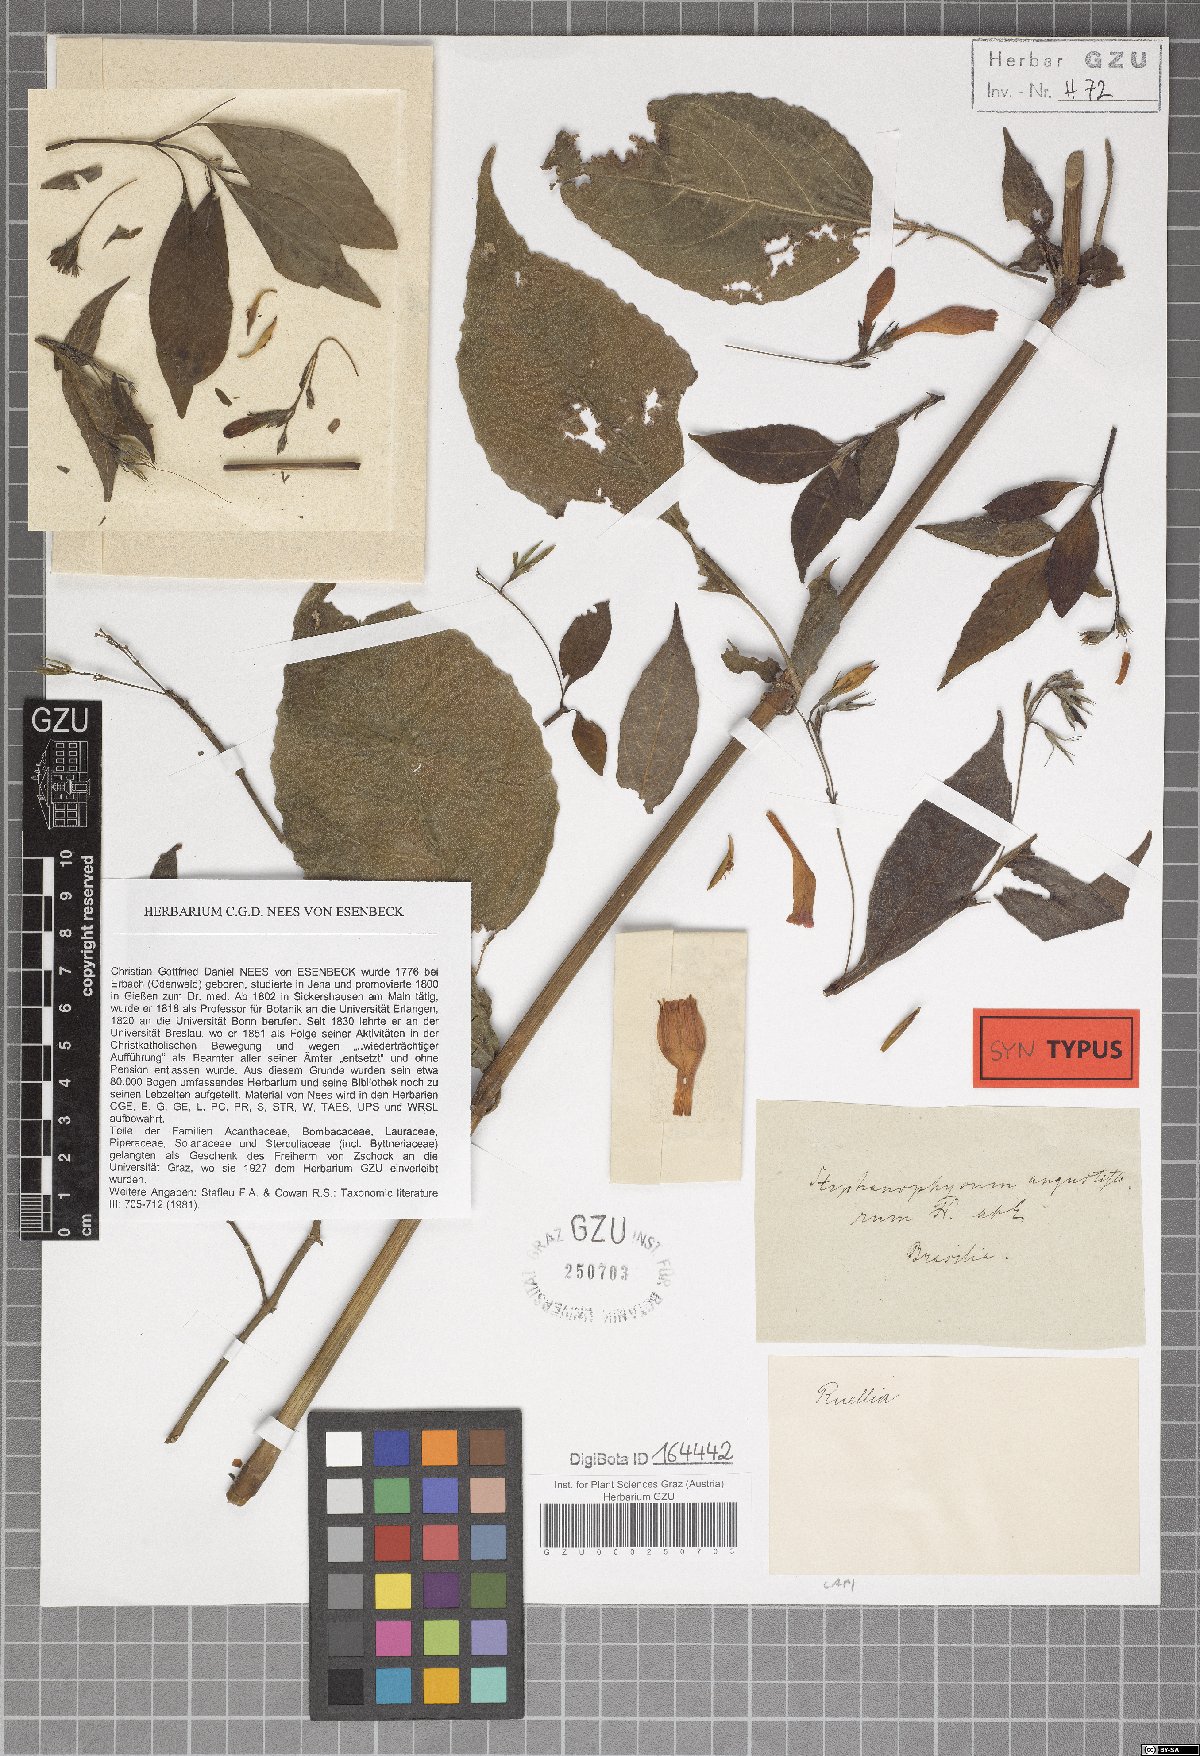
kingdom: Plantae
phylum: Tracheophyta
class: Magnoliopsida
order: Lamiales
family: Acanthaceae
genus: Ruellia
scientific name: Ruellia angustiflora
